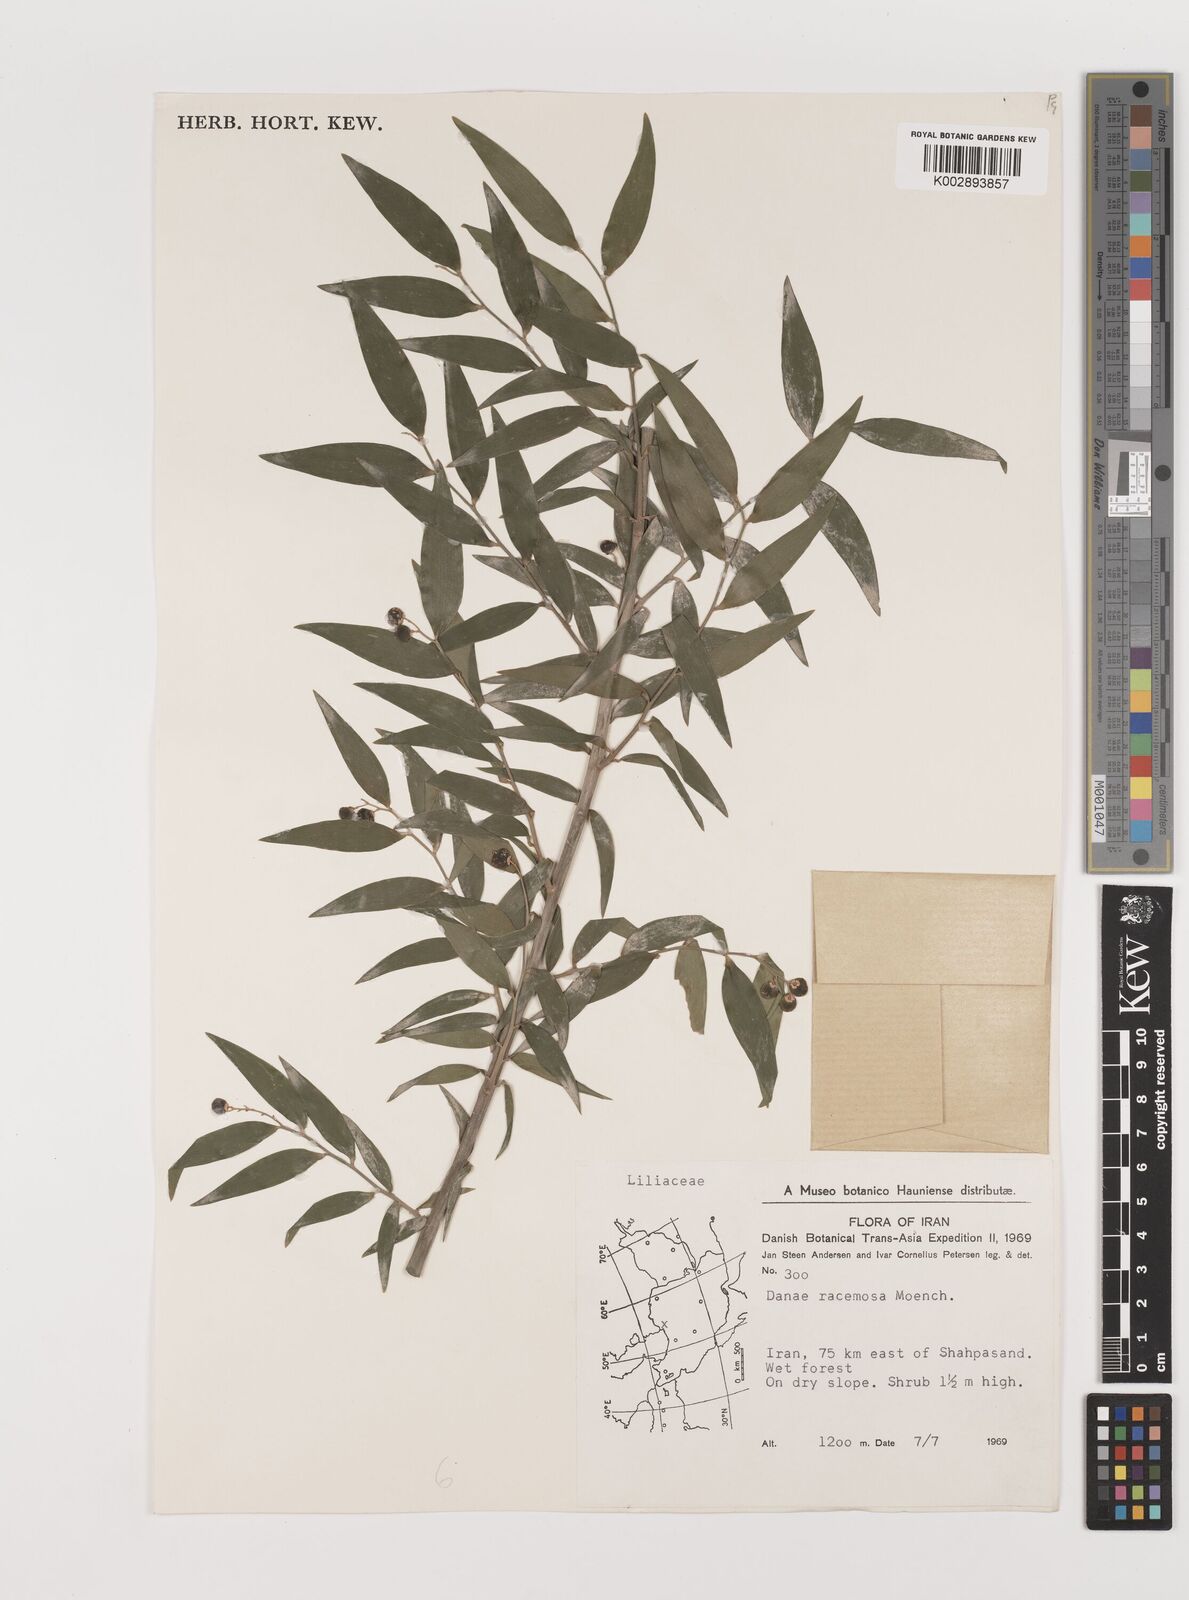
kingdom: Plantae
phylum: Tracheophyta
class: Liliopsida
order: Asparagales
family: Asparagaceae
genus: Danae
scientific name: Danae racemosa
